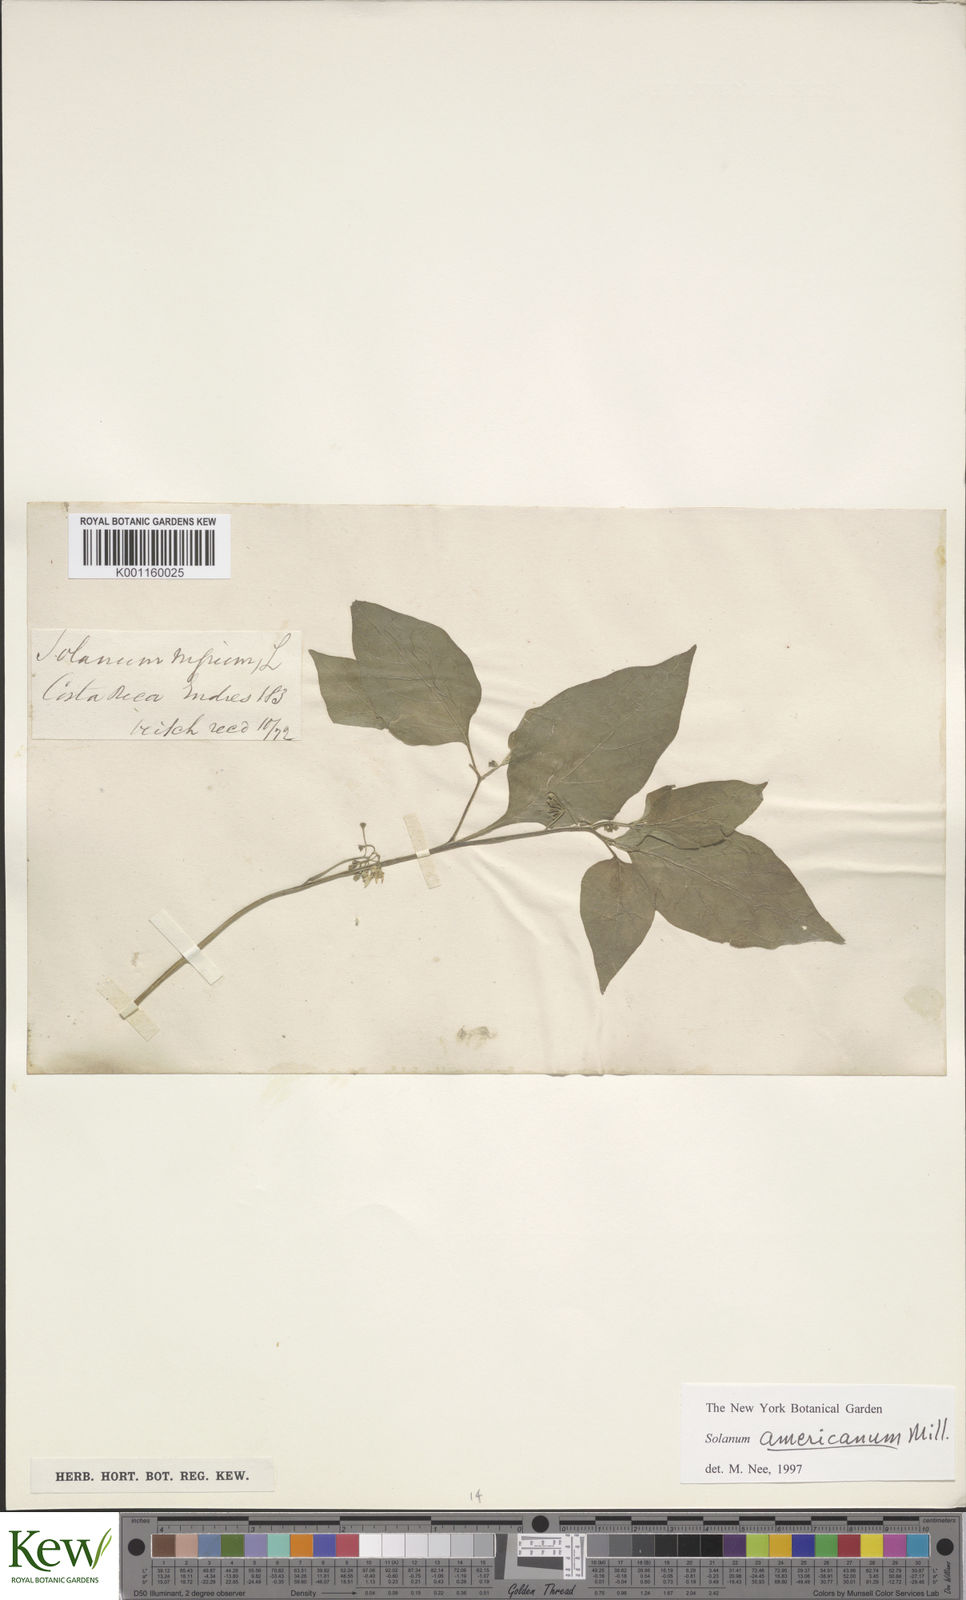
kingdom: Plantae
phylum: Tracheophyta
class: Magnoliopsida
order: Solanales
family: Solanaceae
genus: Solanum
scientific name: Solanum americanum
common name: American black nightshade
